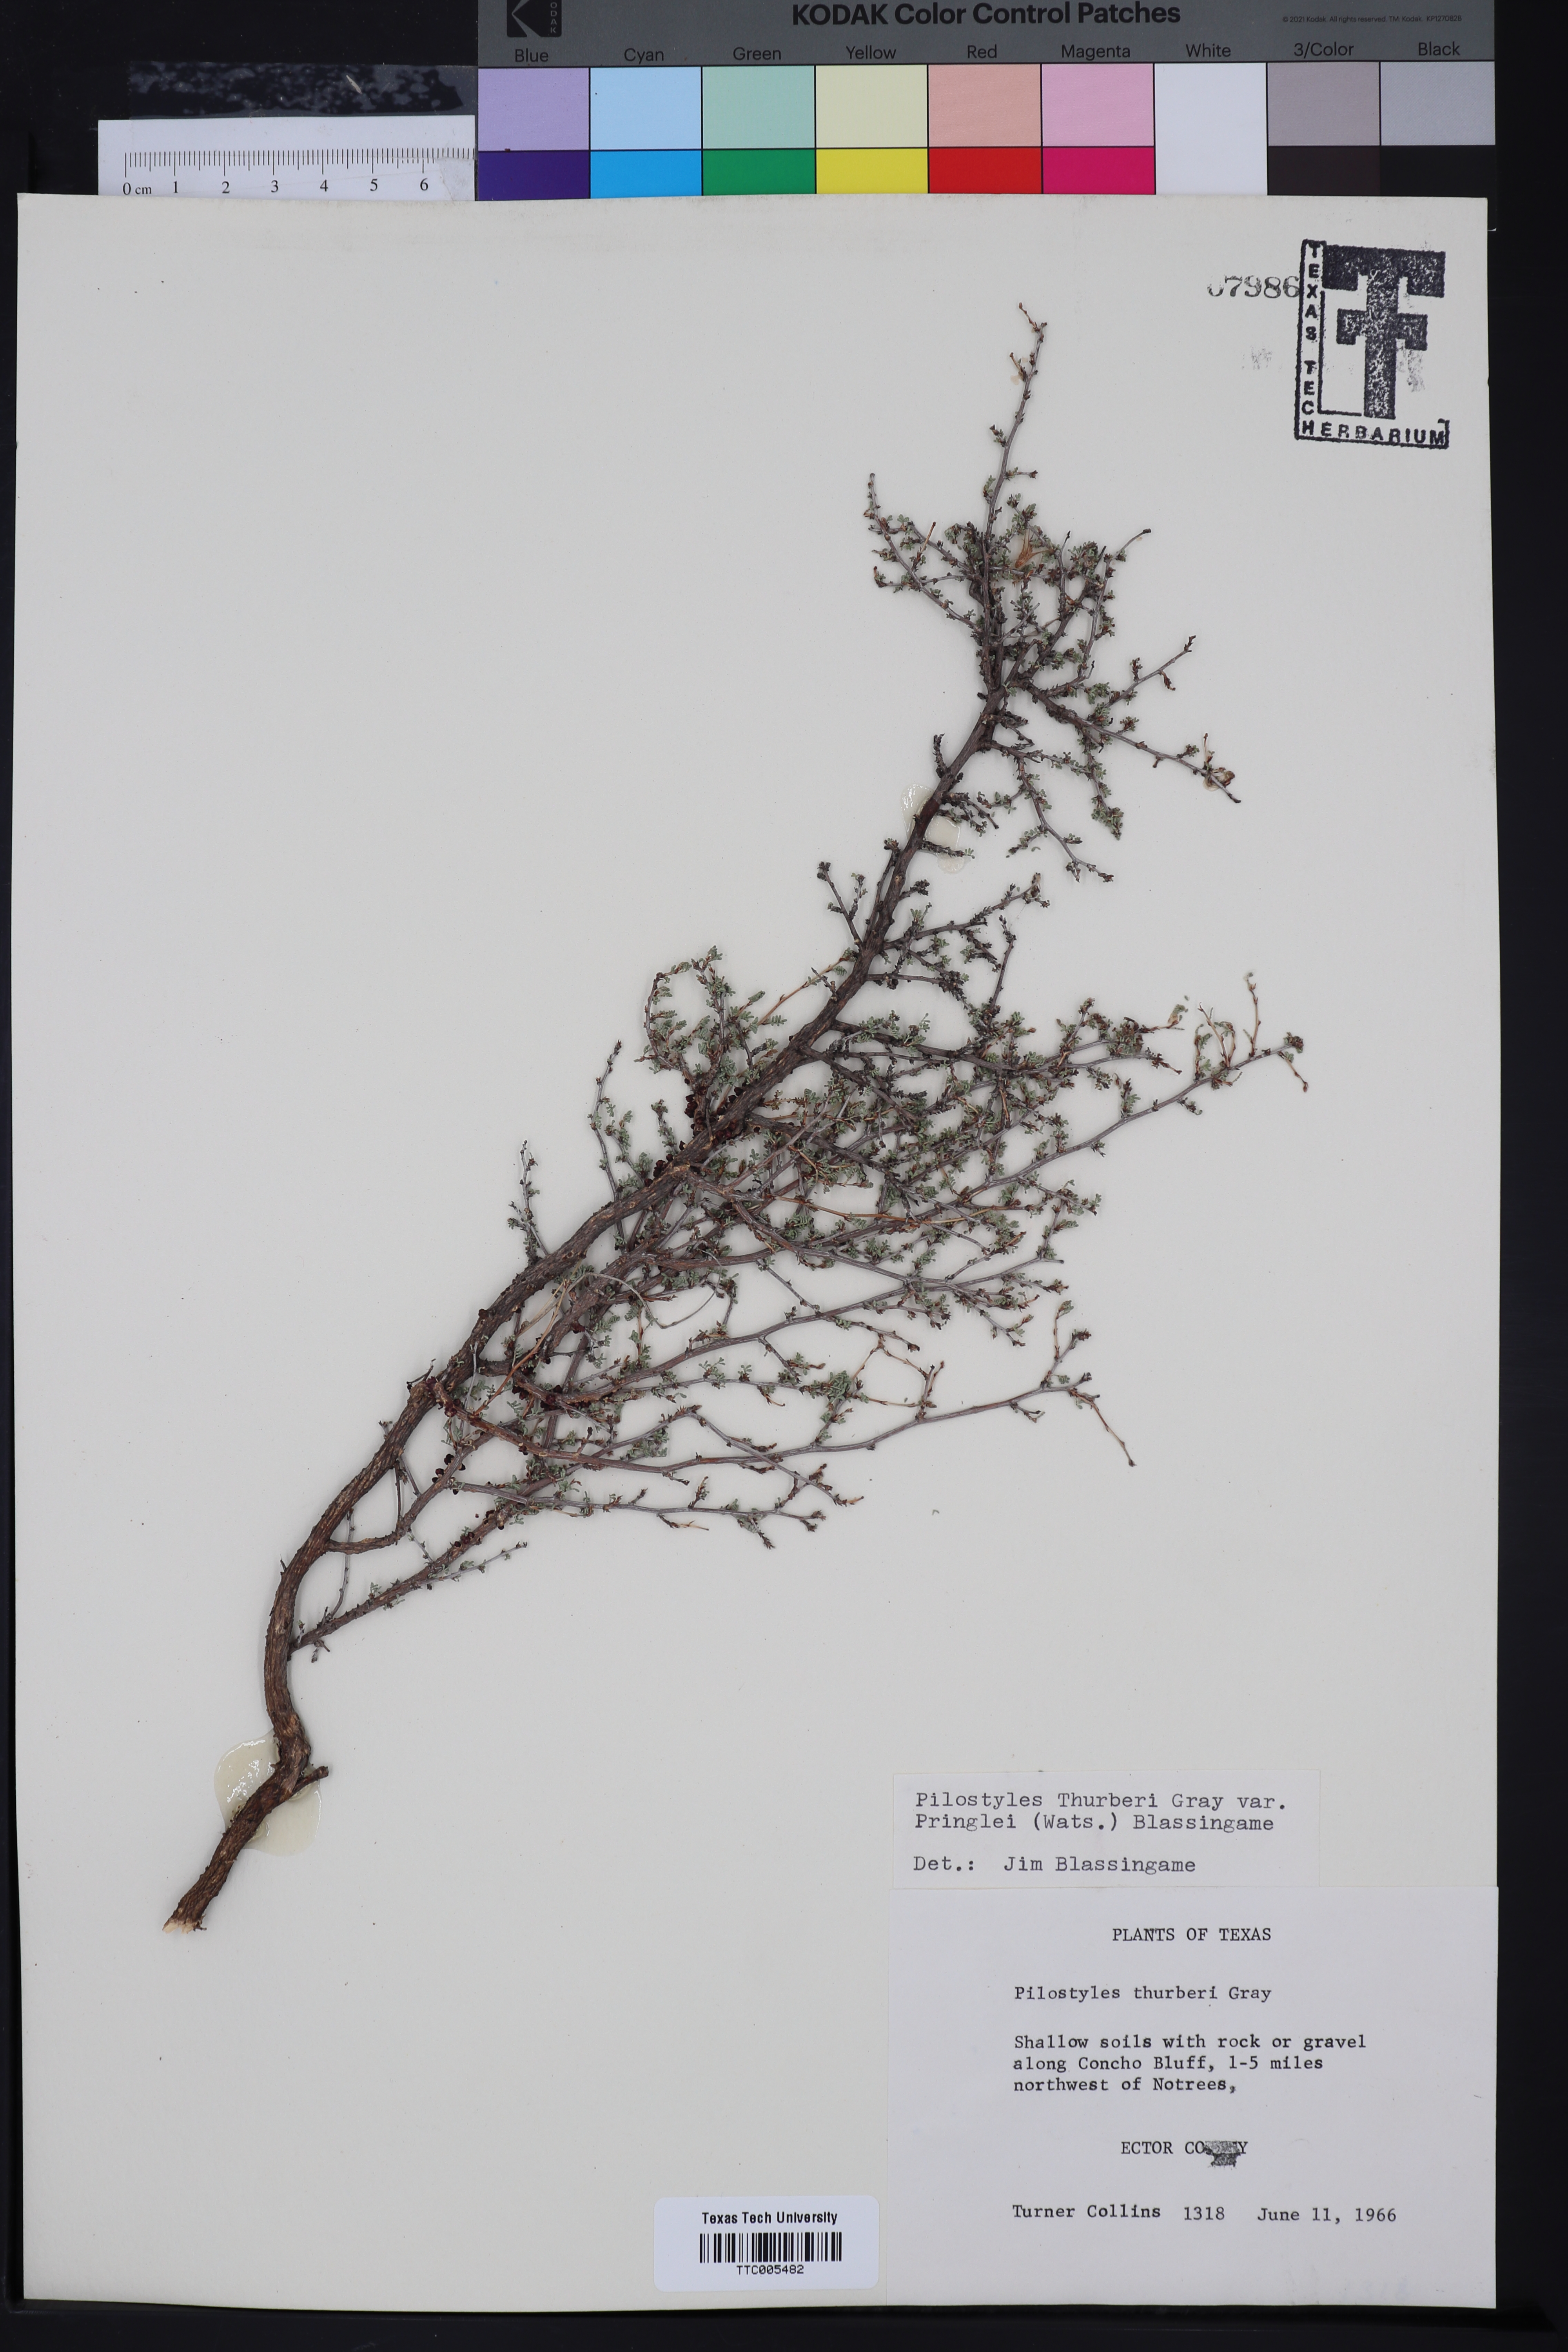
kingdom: Plantae
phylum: Tracheophyta
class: Magnoliopsida
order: Cucurbitales
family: Apodanthaceae
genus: Pilostyles
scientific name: Pilostyles thurberi
